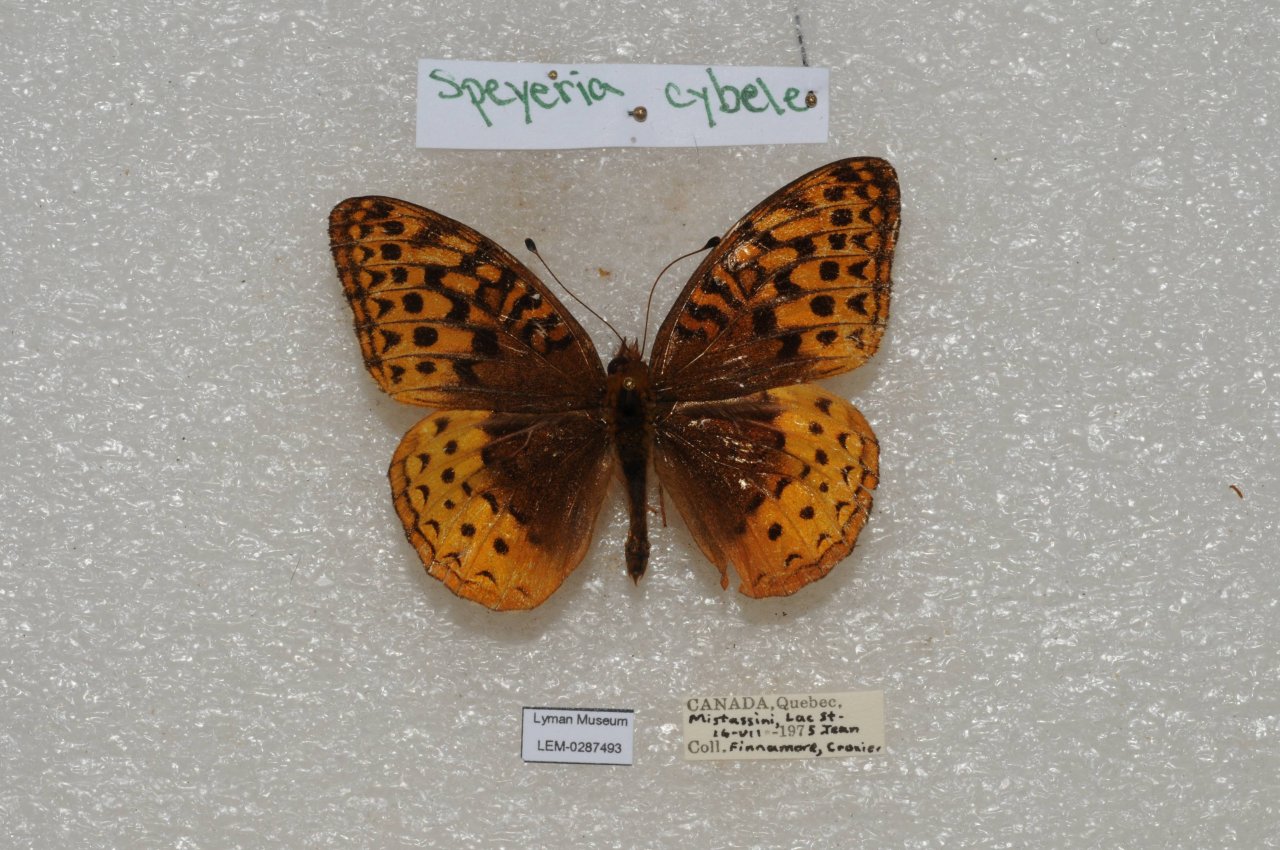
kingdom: Animalia
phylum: Arthropoda
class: Insecta
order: Lepidoptera
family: Nymphalidae
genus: Speyeria
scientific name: Speyeria cybele
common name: Great Spangled Fritillary
